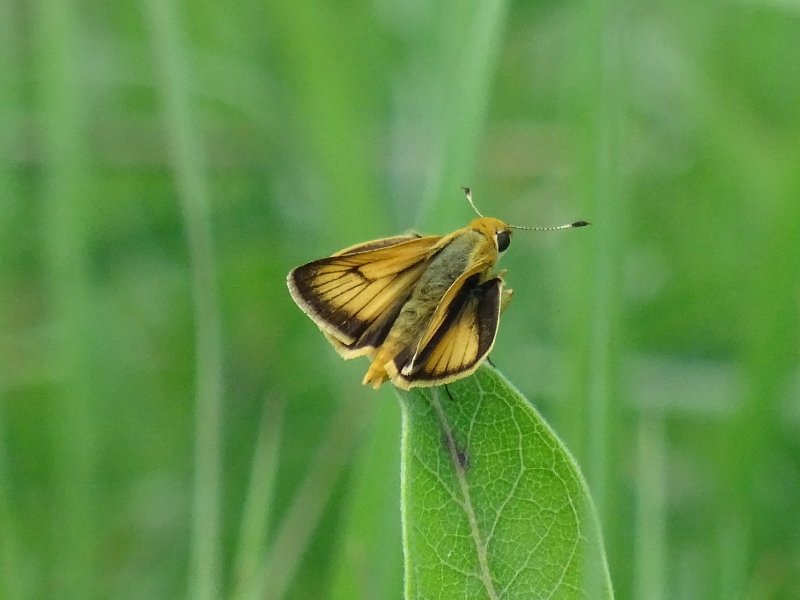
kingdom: Animalia
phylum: Arthropoda
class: Insecta
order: Lepidoptera
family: Hesperiidae
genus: Atrytone
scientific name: Atrytone delaware
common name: Delaware Skipper
